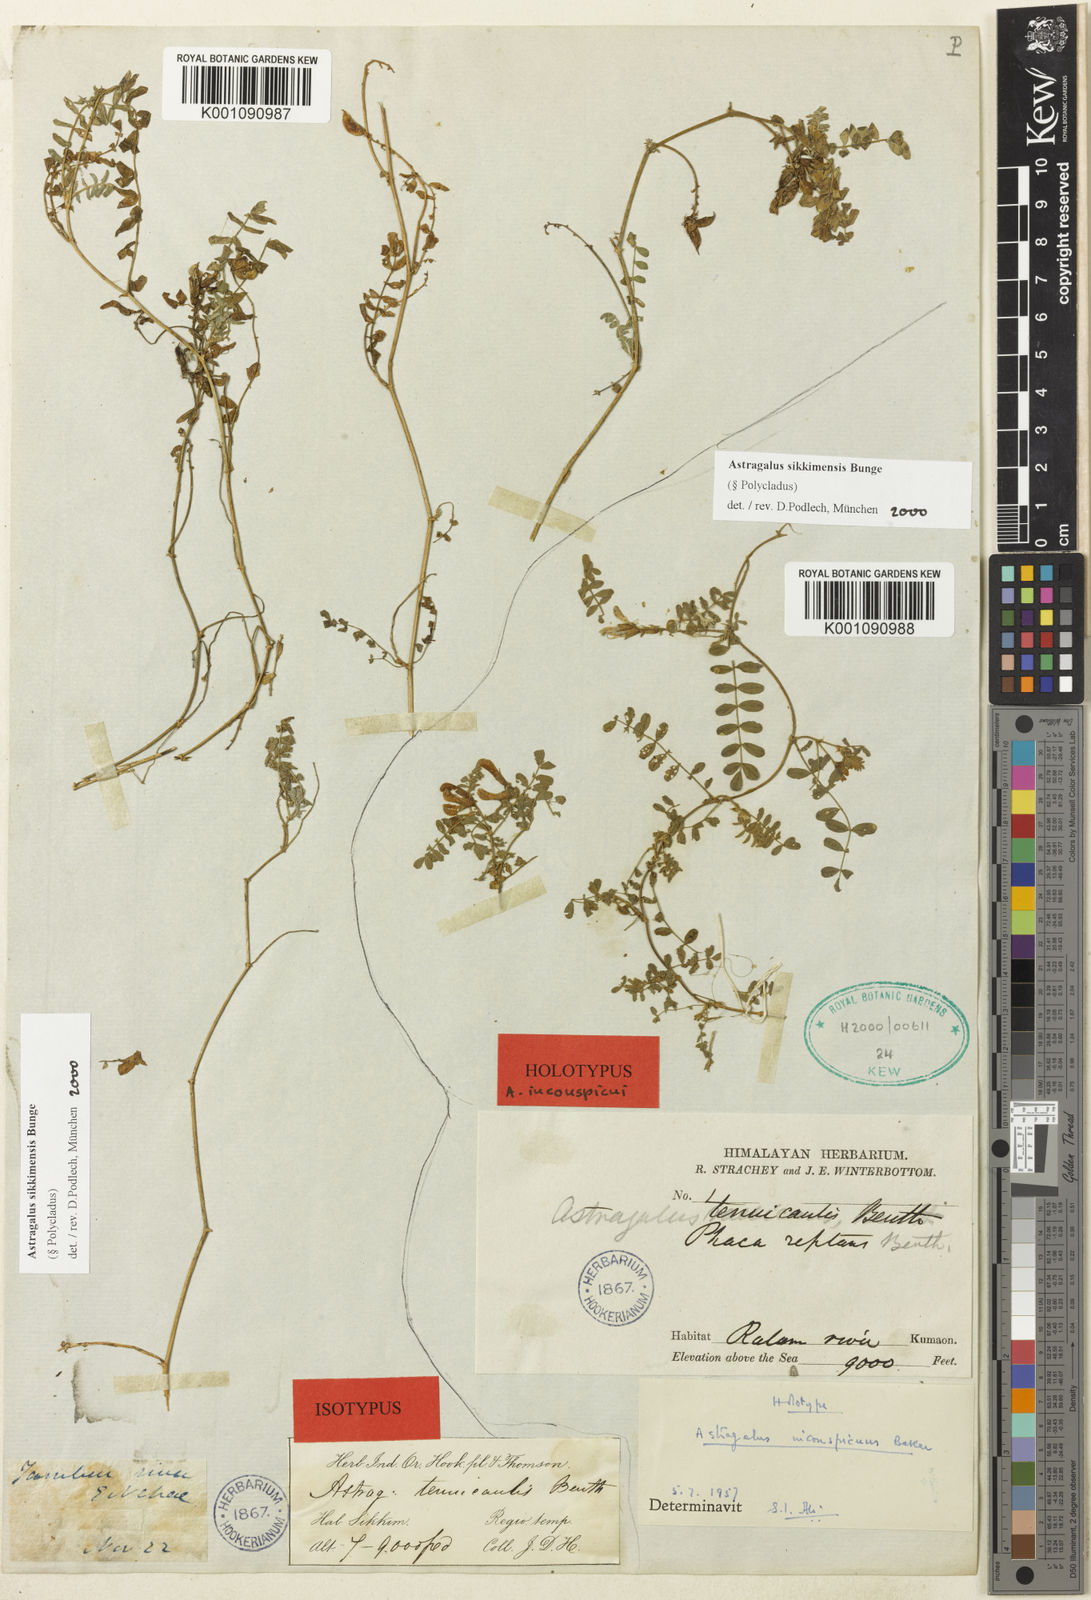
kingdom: Plantae
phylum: Tracheophyta
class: Magnoliopsida
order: Fabales
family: Fabaceae
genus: Astragalus
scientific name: Astragalus
